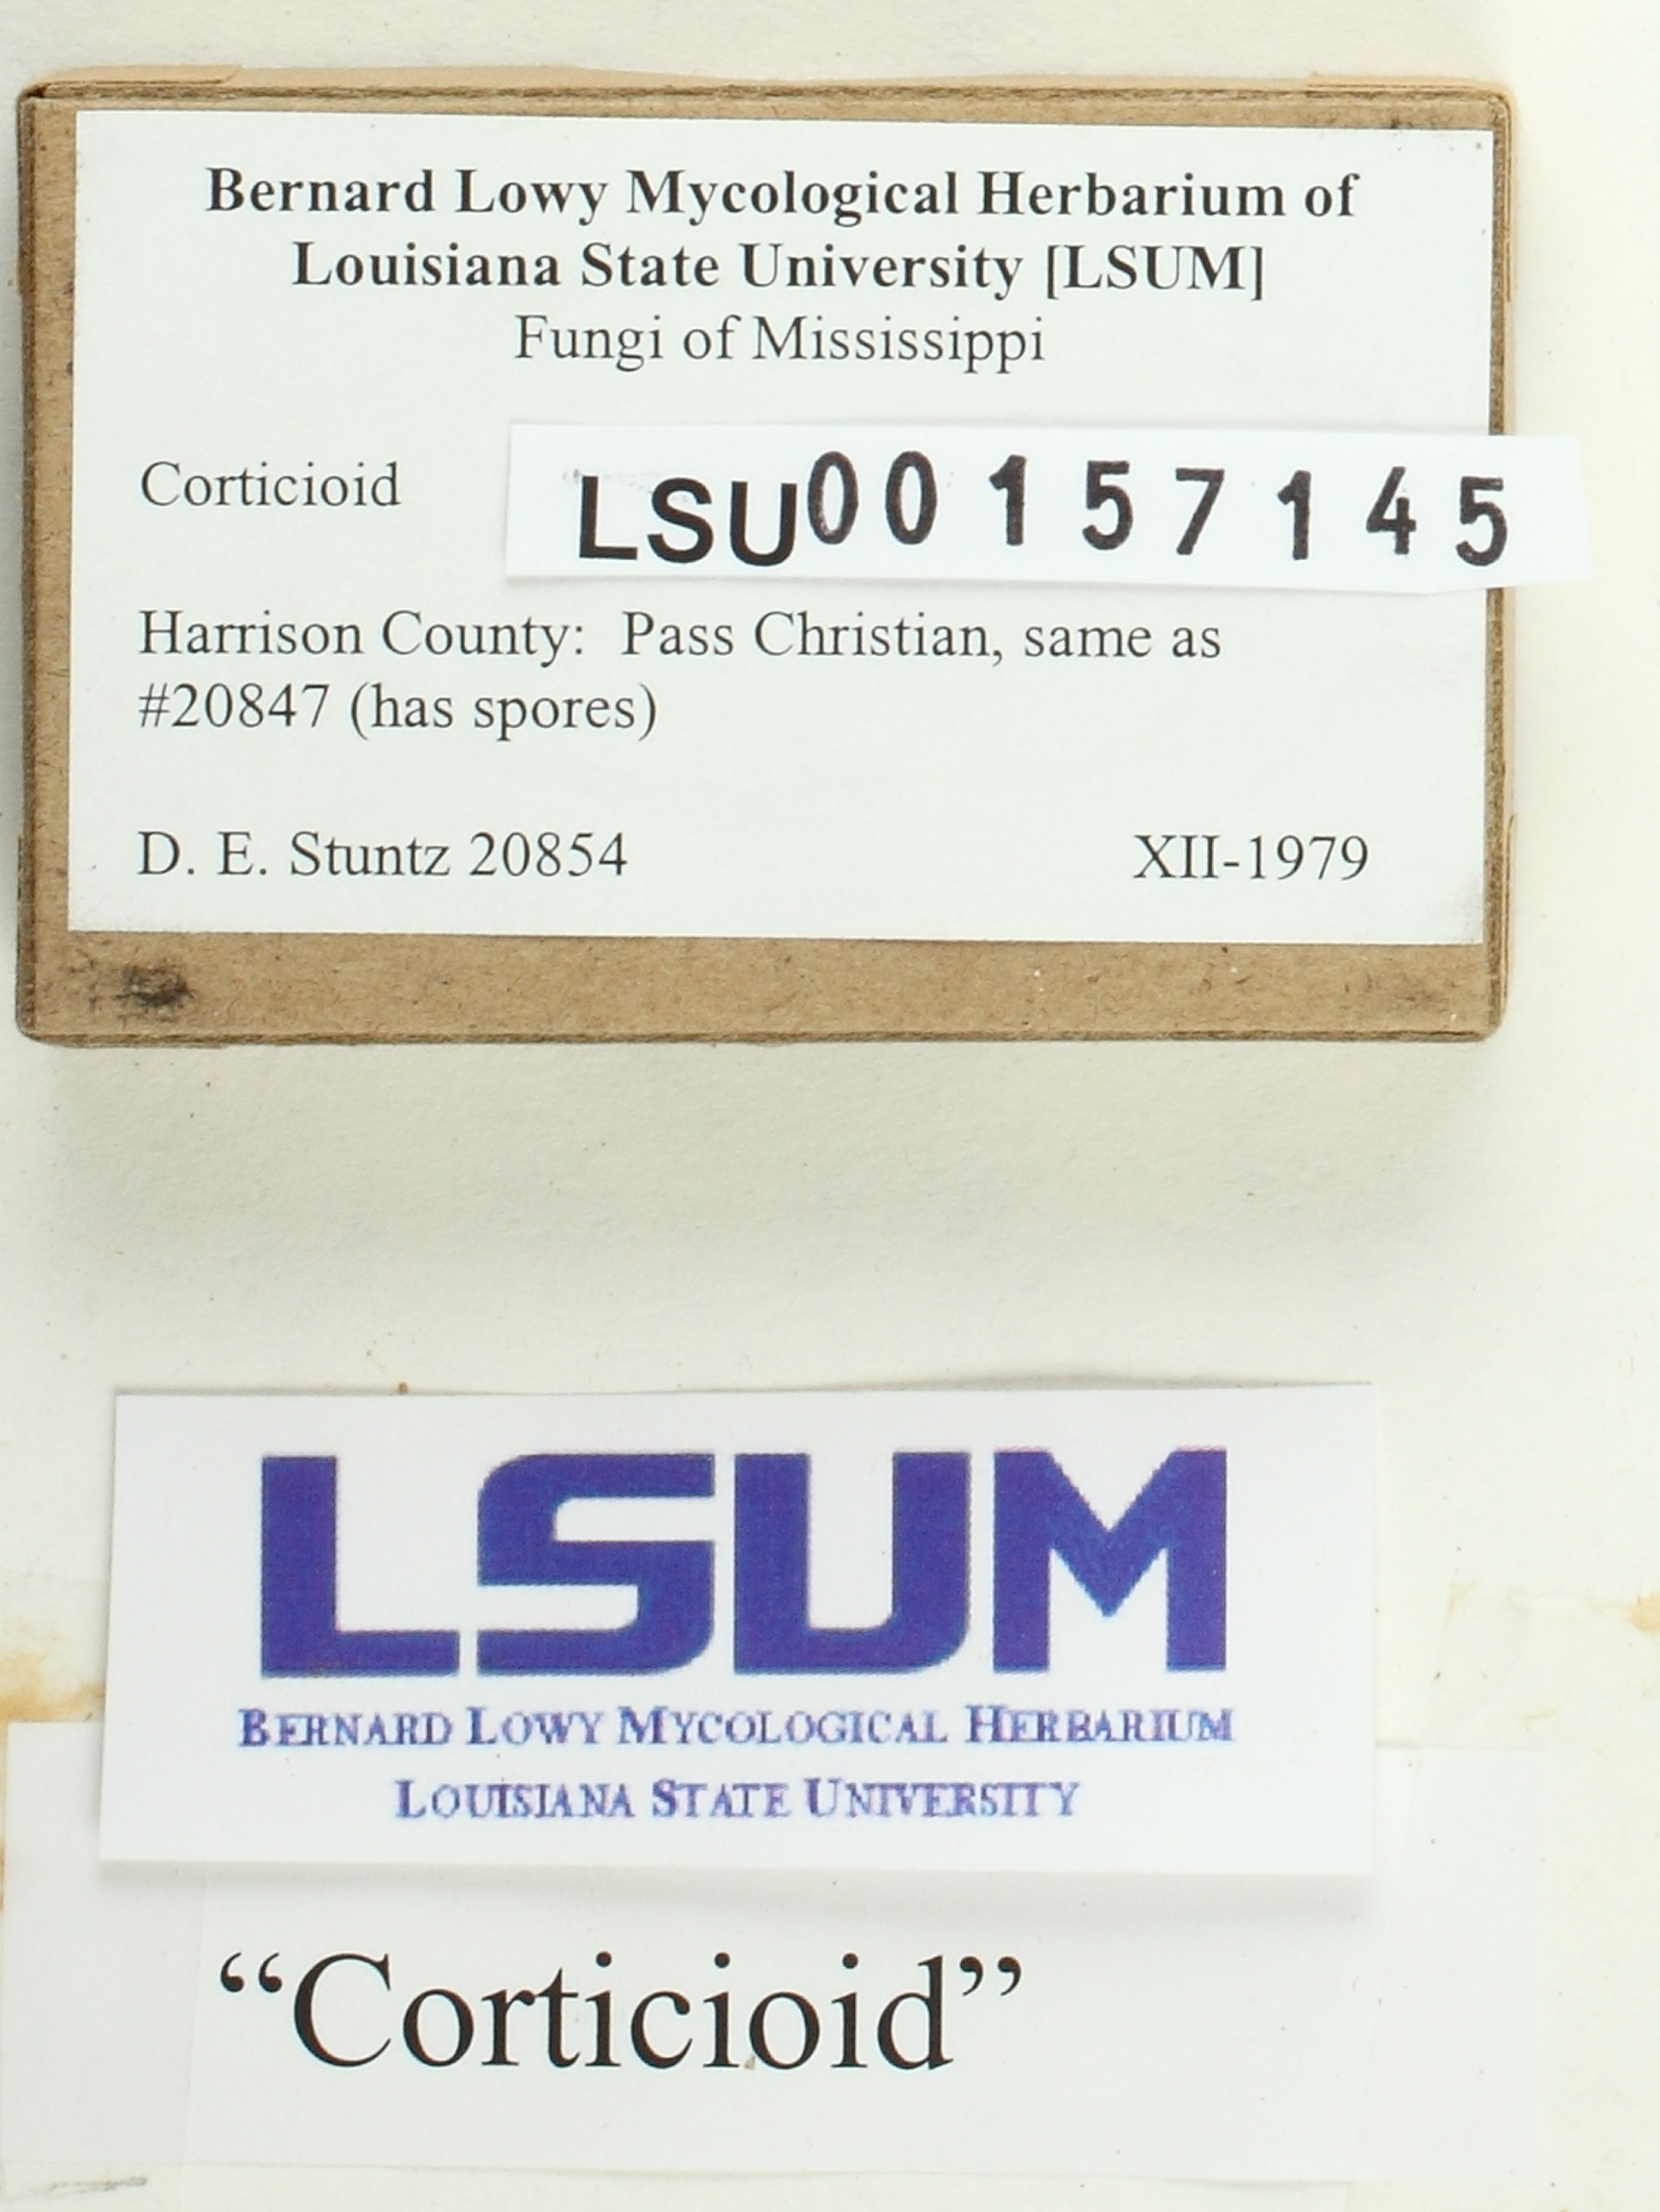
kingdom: Fungi
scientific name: Fungi
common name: Fungi
